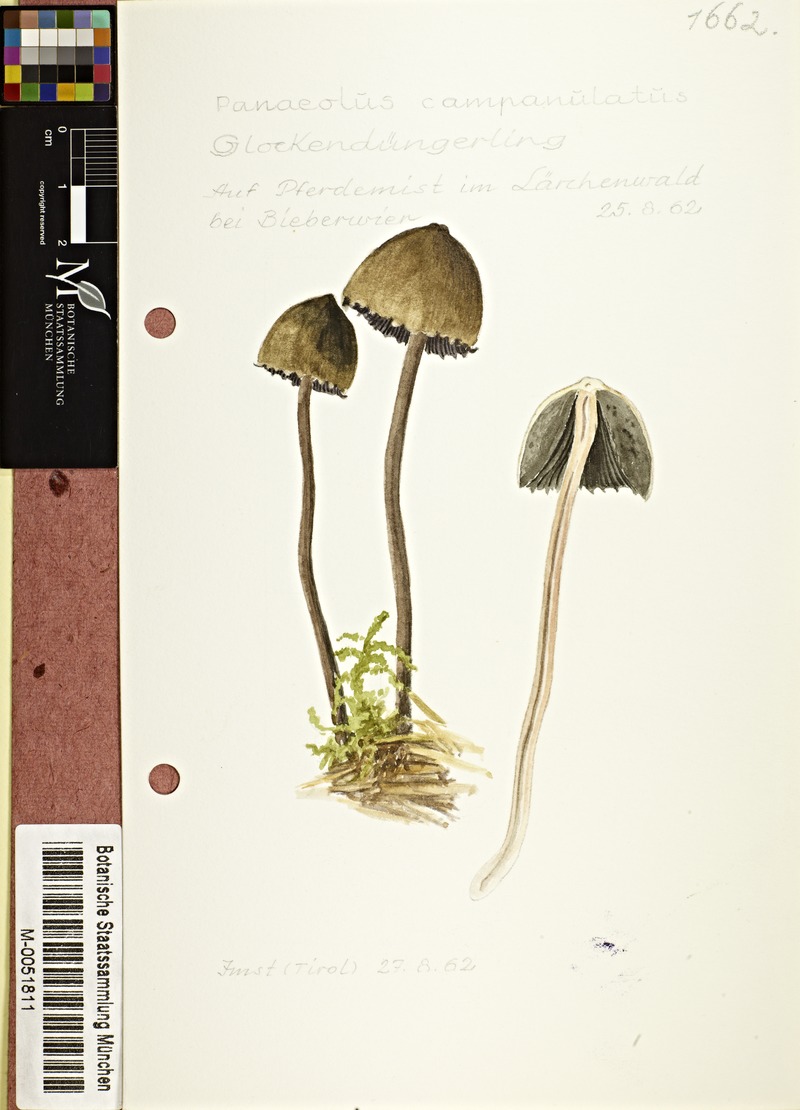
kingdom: Fungi
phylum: Basidiomycota
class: Agaricomycetes
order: Agaricales
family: Bolbitiaceae
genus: Panaeolus
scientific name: Panaeolus papilionaceus
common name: Petticoat mottlegill
